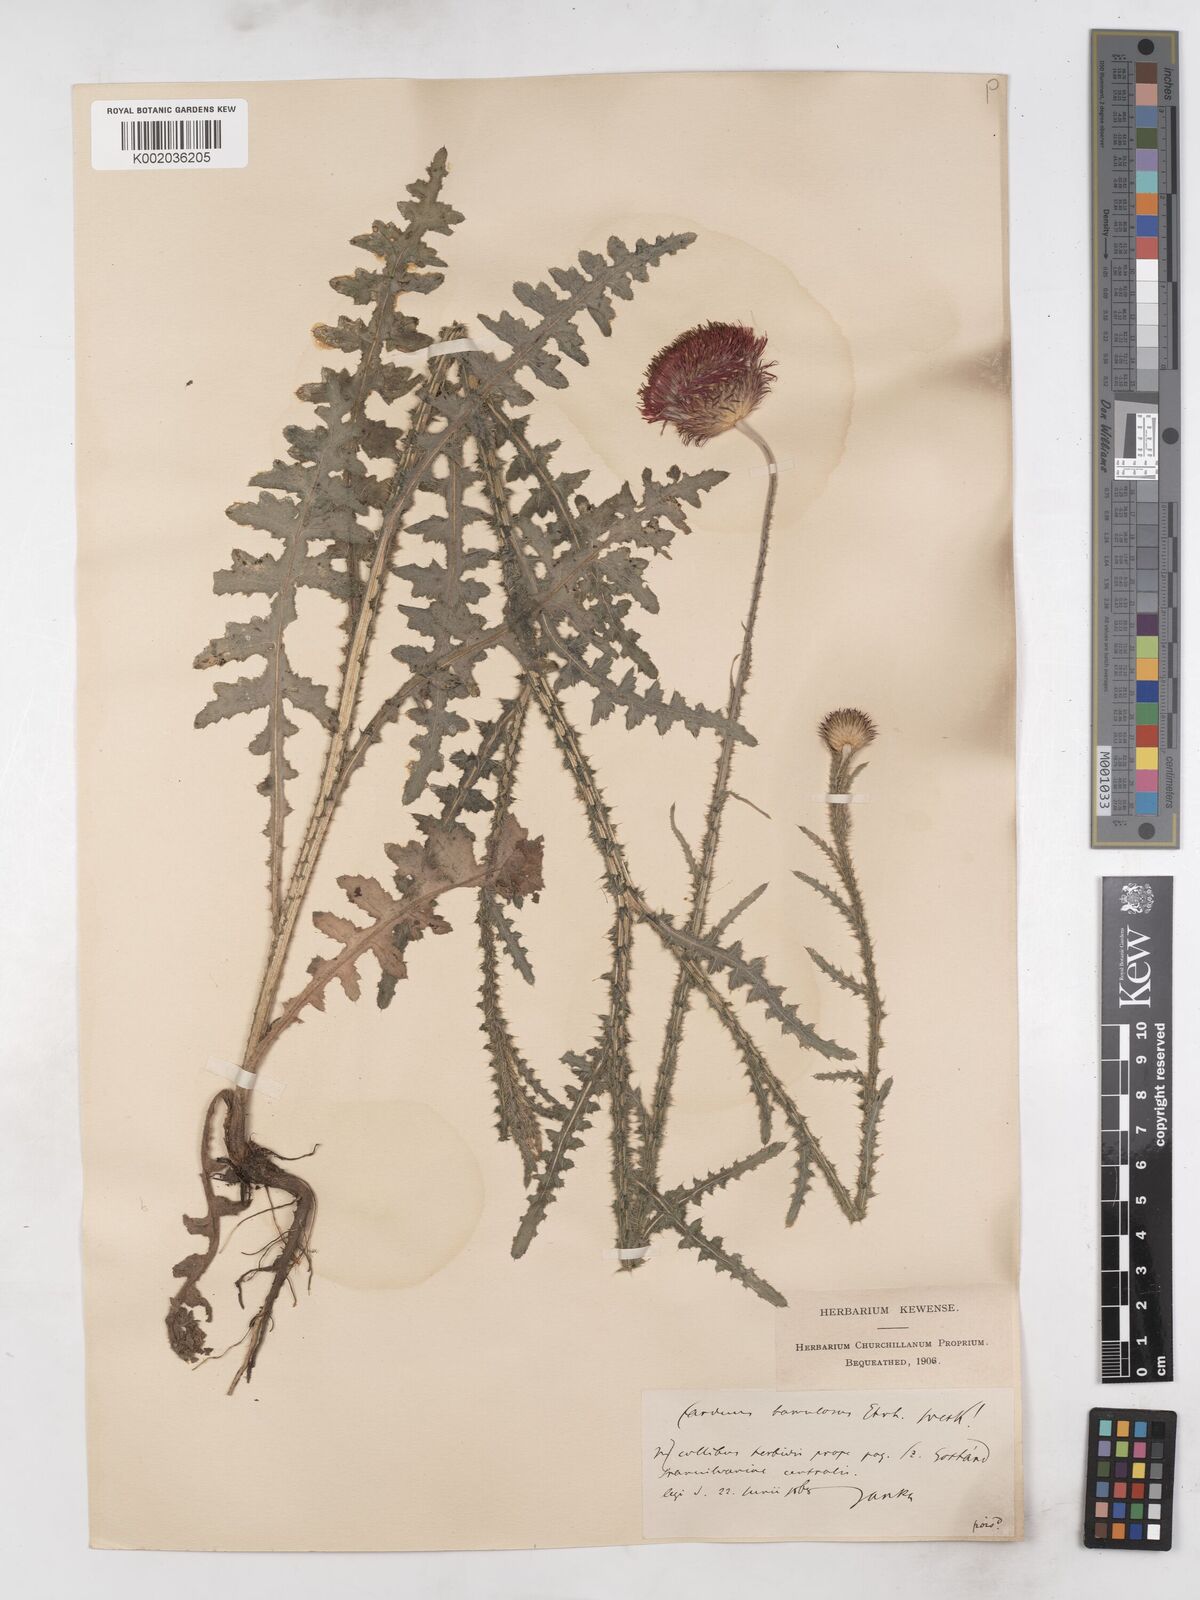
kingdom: Plantae
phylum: Tracheophyta
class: Magnoliopsida
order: Asterales
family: Asteraceae
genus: Carduus
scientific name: Carduus hamulosus
